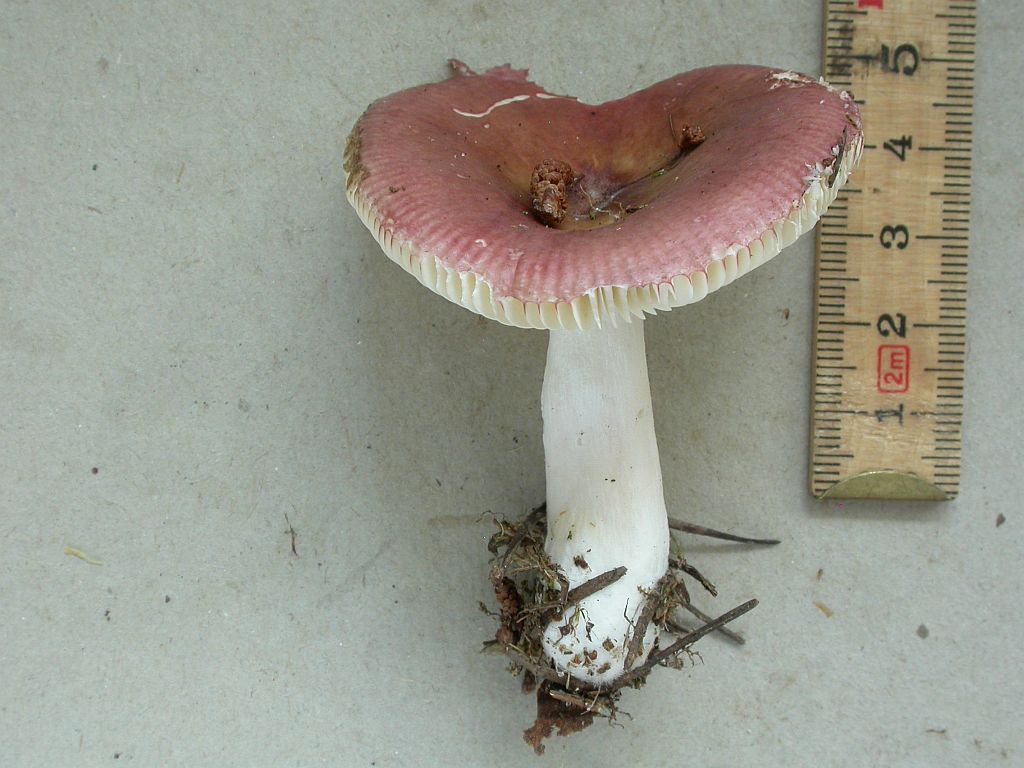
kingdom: Fungi
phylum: Basidiomycota
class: Agaricomycetes
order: Russulales
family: Russulaceae
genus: Russula
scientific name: Russula nitida
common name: året skørhat
